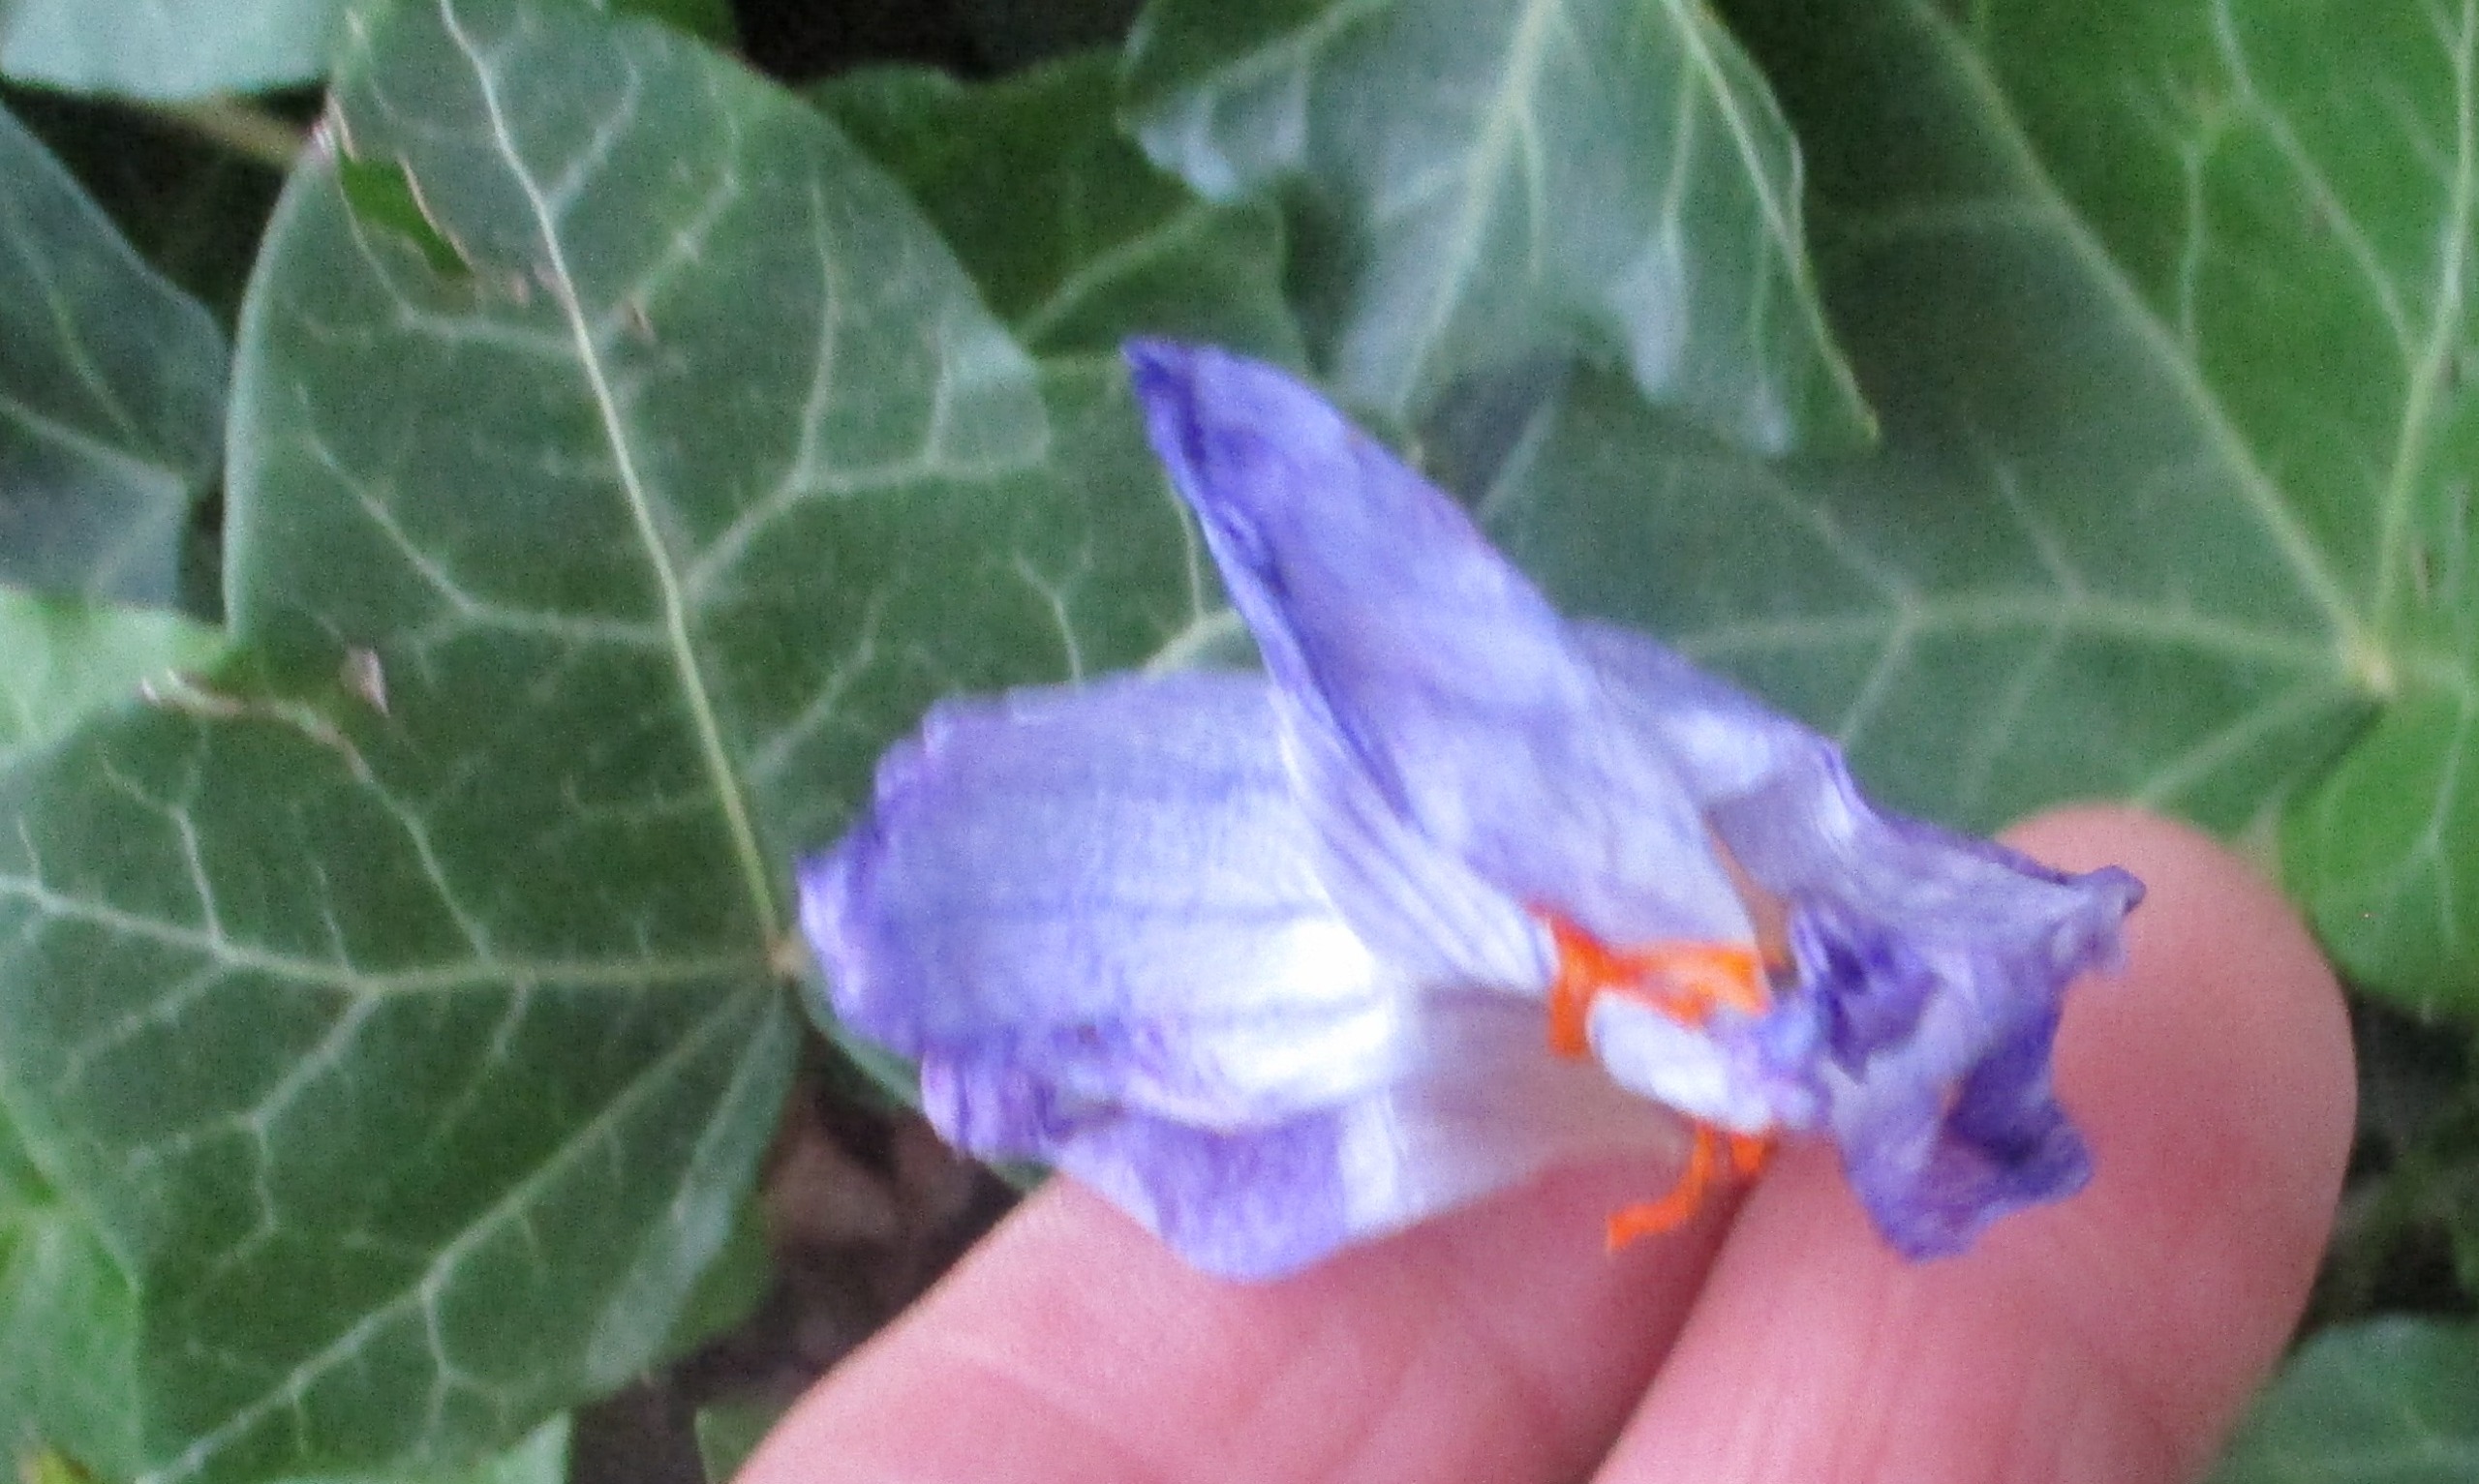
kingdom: Plantae
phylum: Tracheophyta
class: Liliopsida
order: Asparagales
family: Iridaceae
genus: Crocus
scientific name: Crocus speciosus
